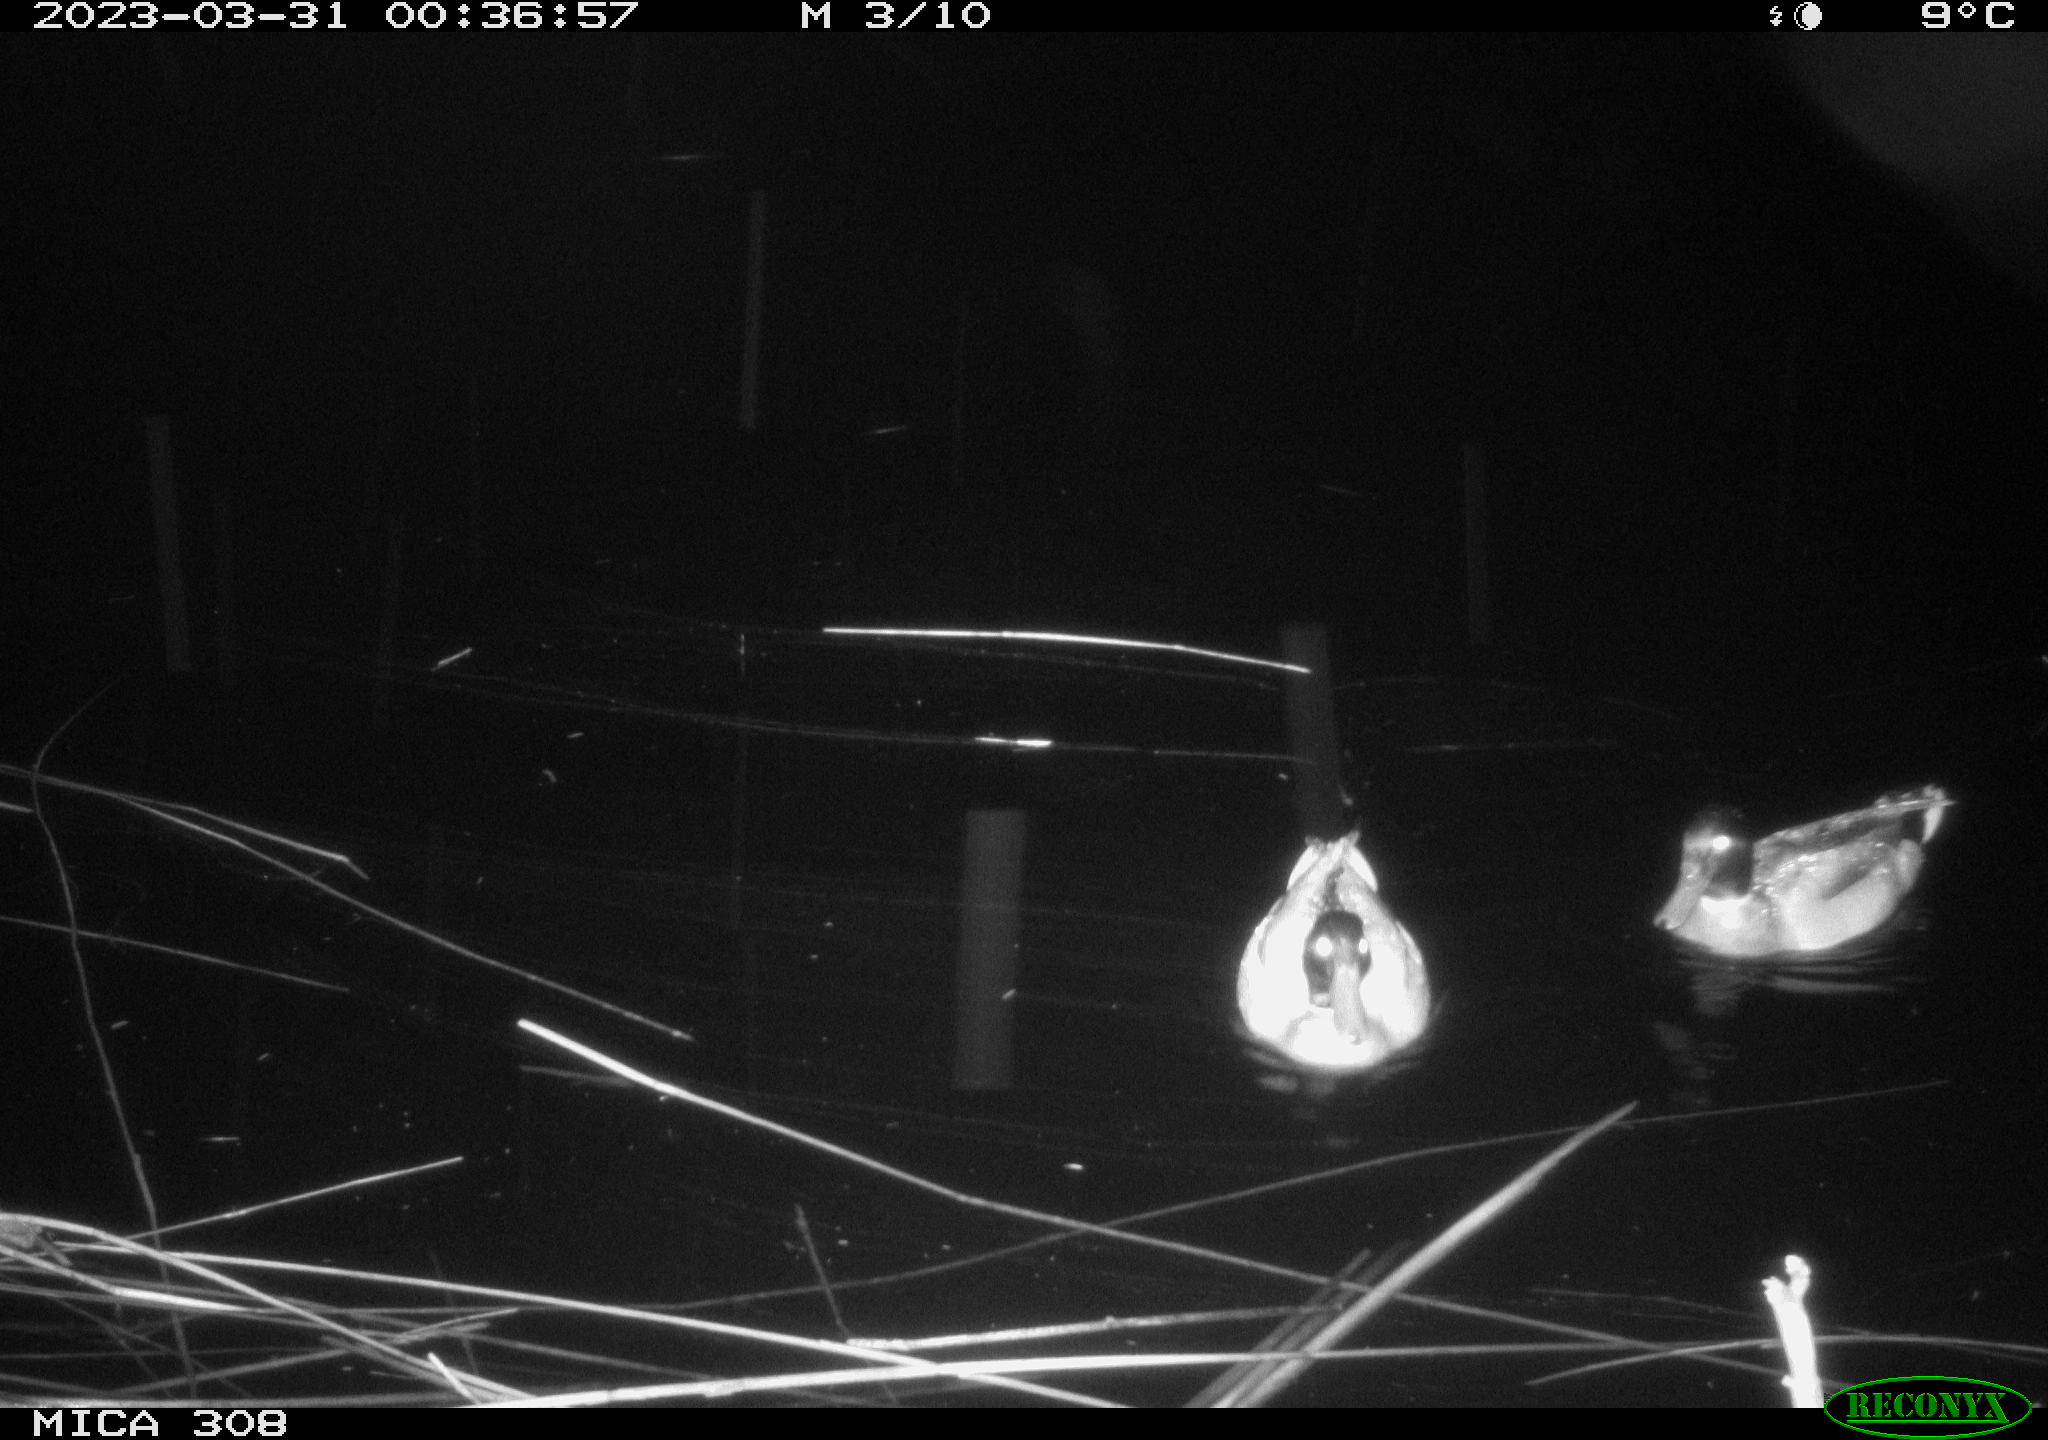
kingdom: Animalia
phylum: Chordata
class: Aves
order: Anseriformes
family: Anatidae
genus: Anas
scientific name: Anas
